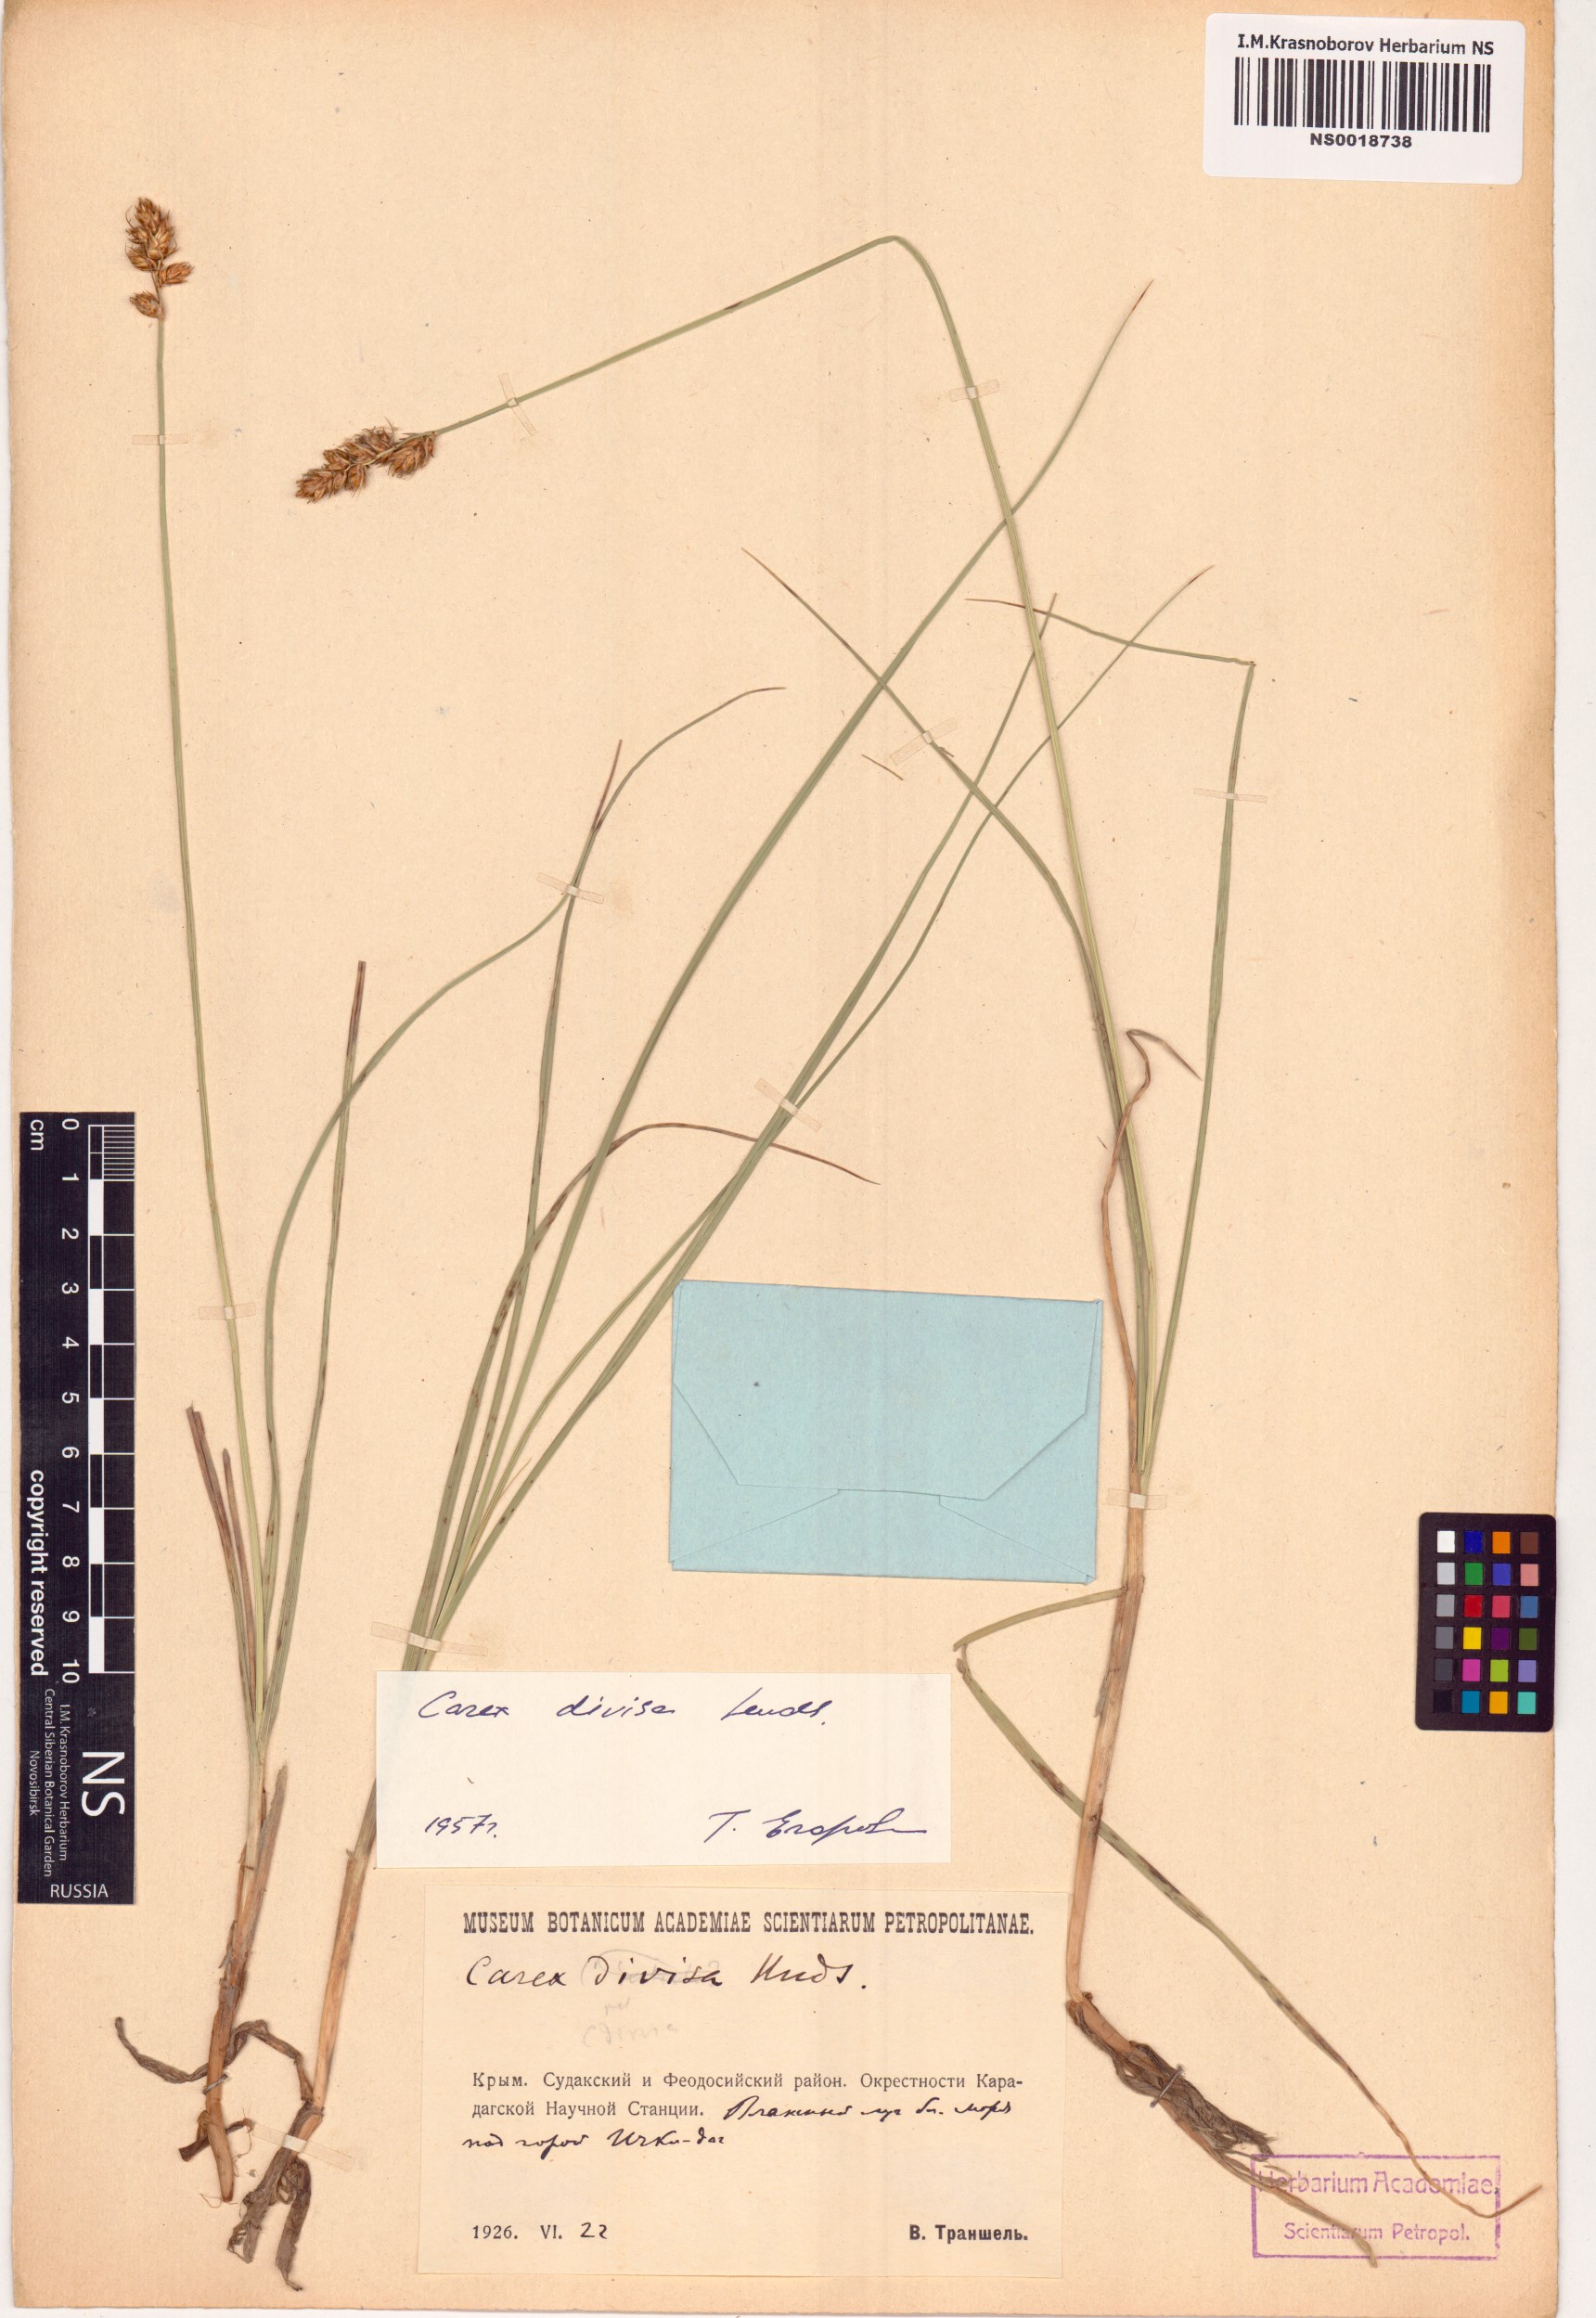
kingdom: Plantae
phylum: Tracheophyta
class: Liliopsida
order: Poales
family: Cyperaceae
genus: Carex
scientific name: Carex divisa
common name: Divided sedge
